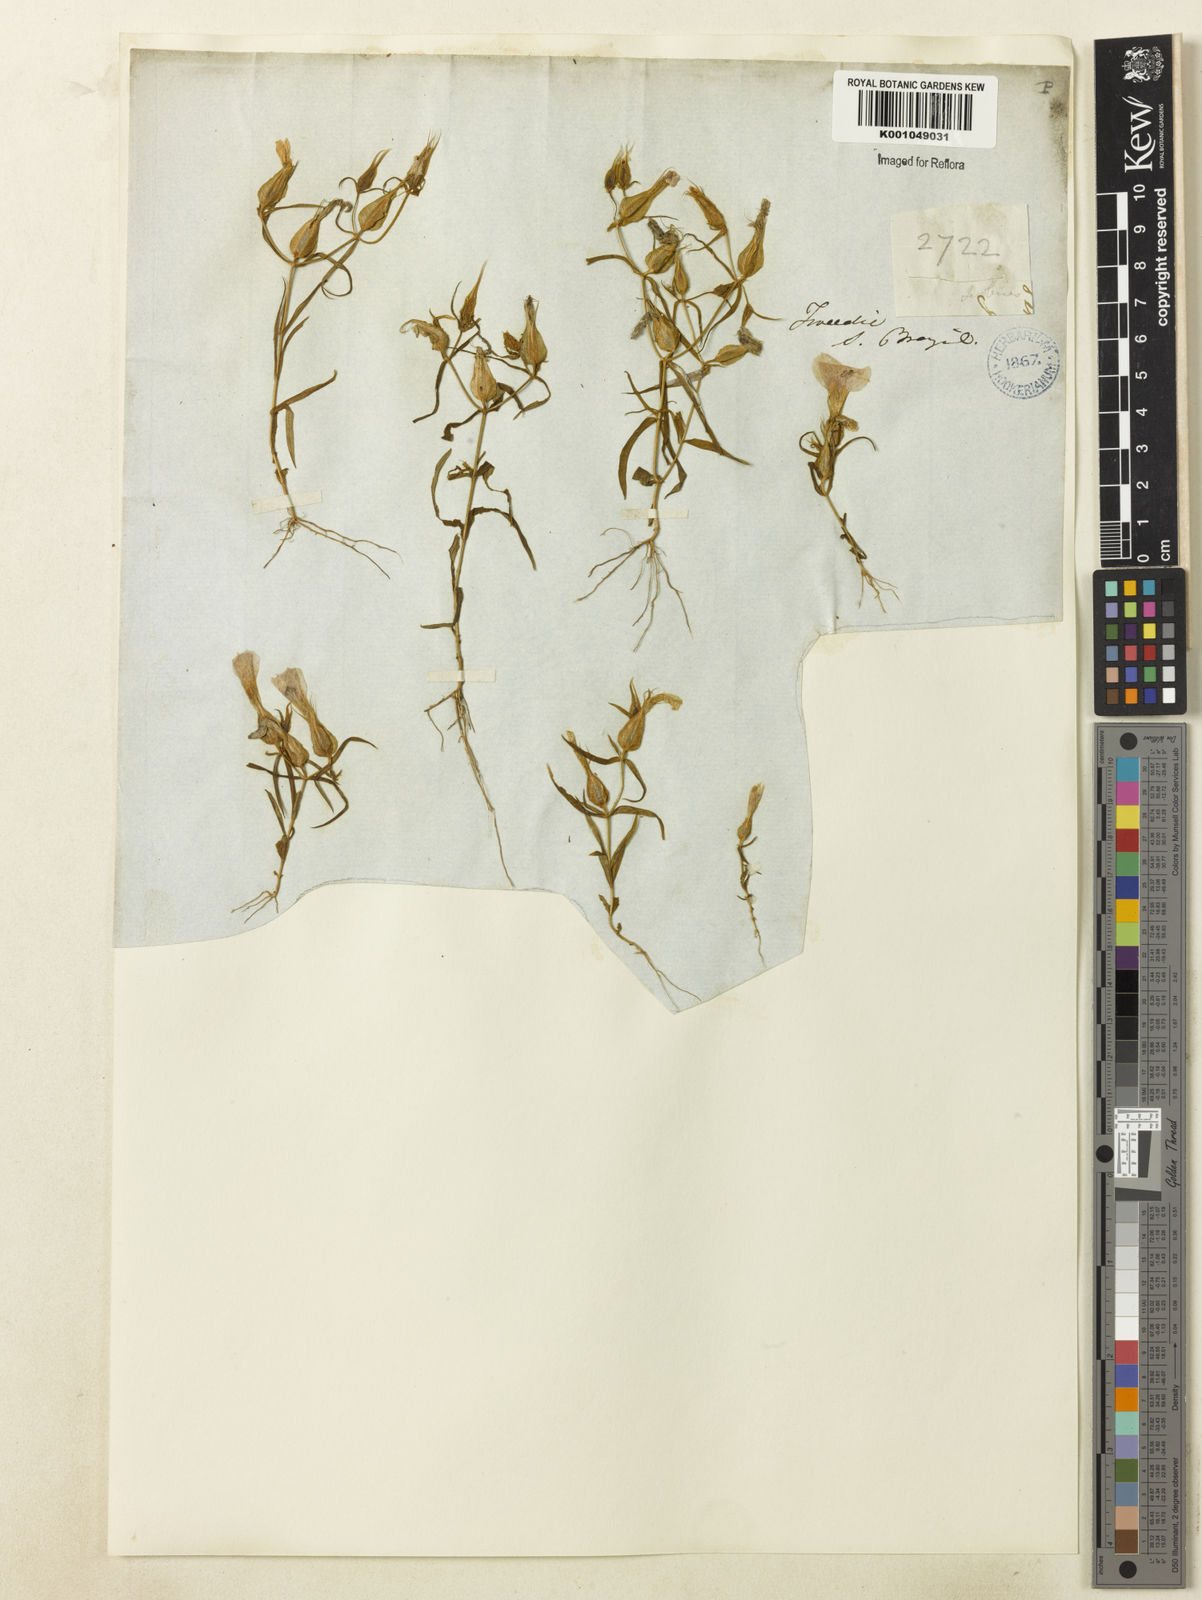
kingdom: Plantae
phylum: Tracheophyta
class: Magnoliopsida
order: Gentianales
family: Gentianaceae
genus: Schultesia
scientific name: Schultesia guianensis
